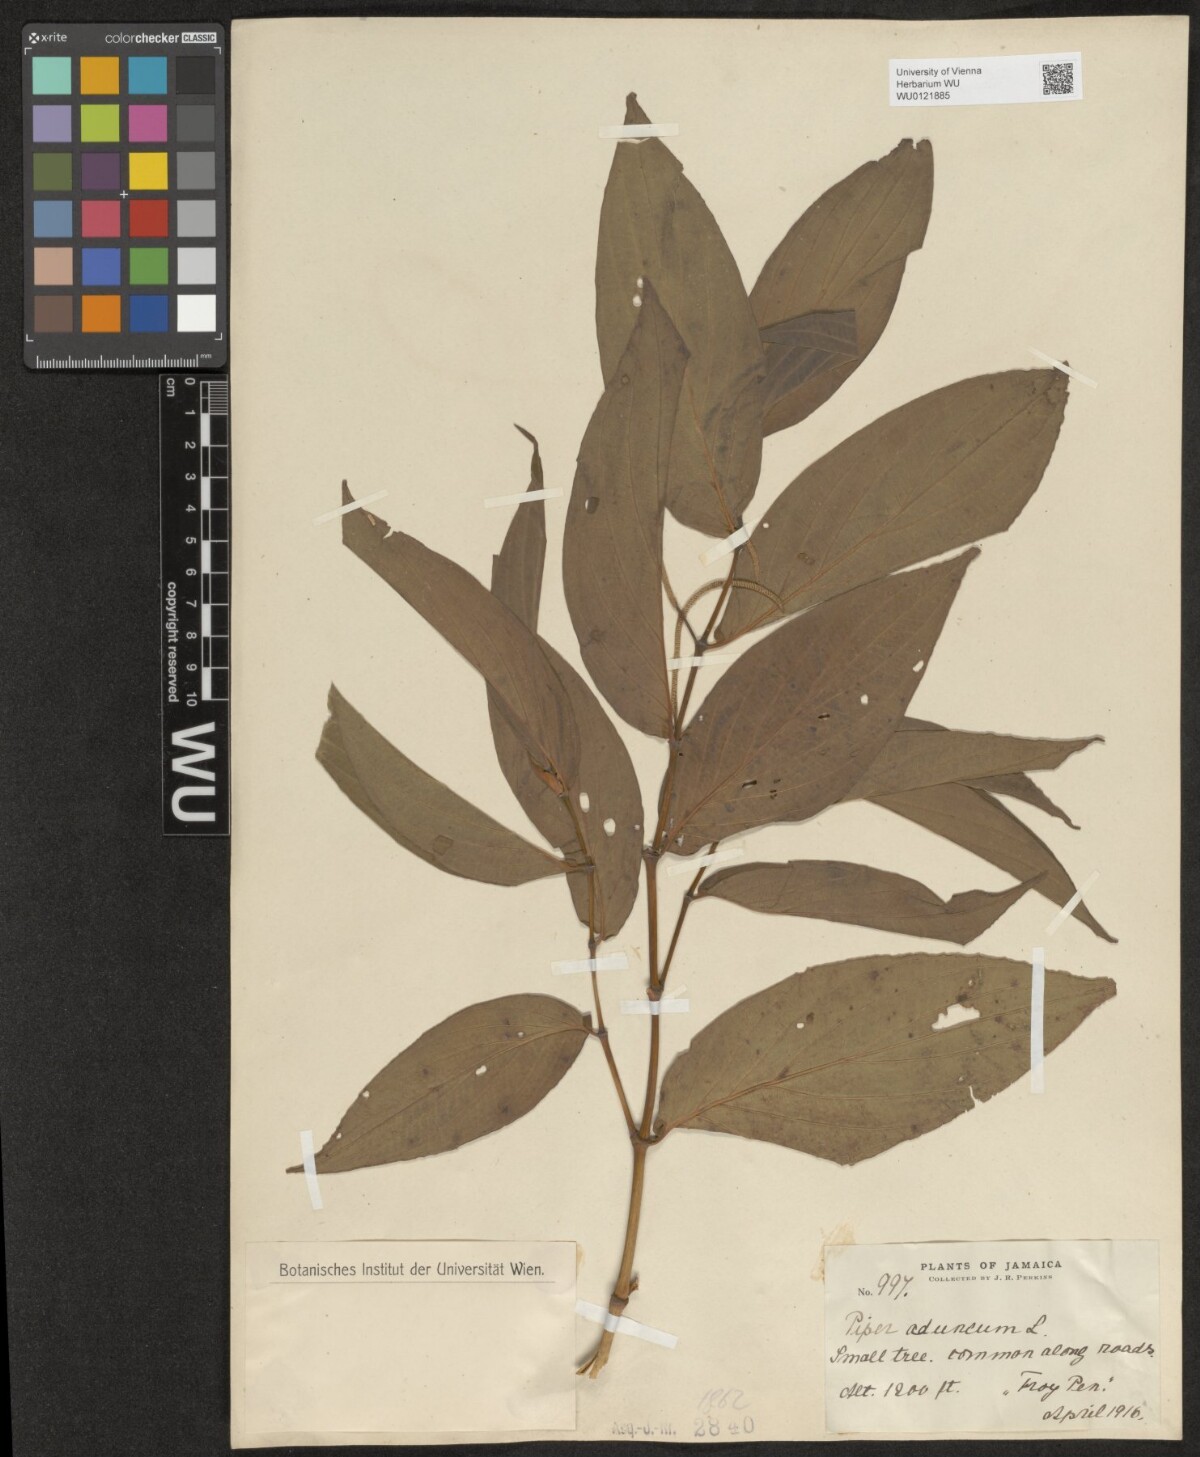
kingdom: Plantae
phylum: Tracheophyta
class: Magnoliopsida
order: Piperales
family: Piperaceae
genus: Piper
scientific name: Piper aduncum
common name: Spiked pepper
